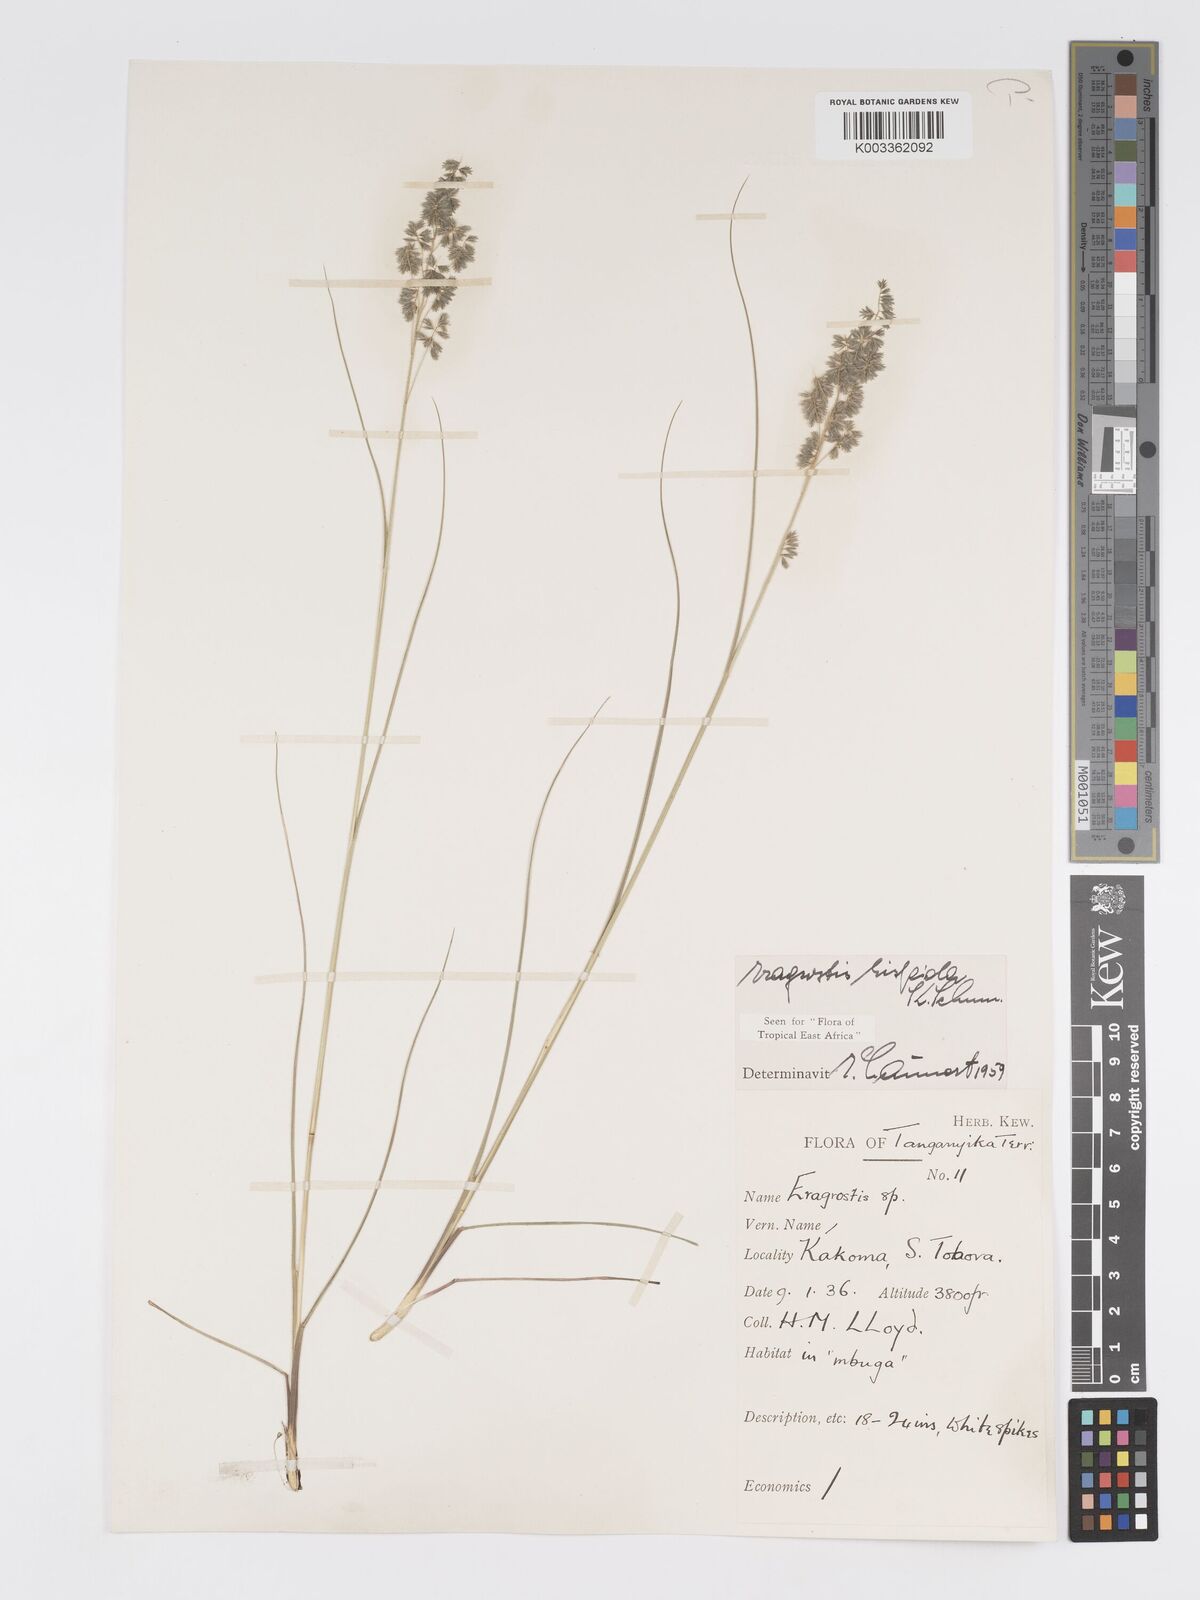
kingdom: Plantae
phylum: Tracheophyta
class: Liliopsida
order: Poales
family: Poaceae
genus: Eragrostis
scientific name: Eragrostis hispida
